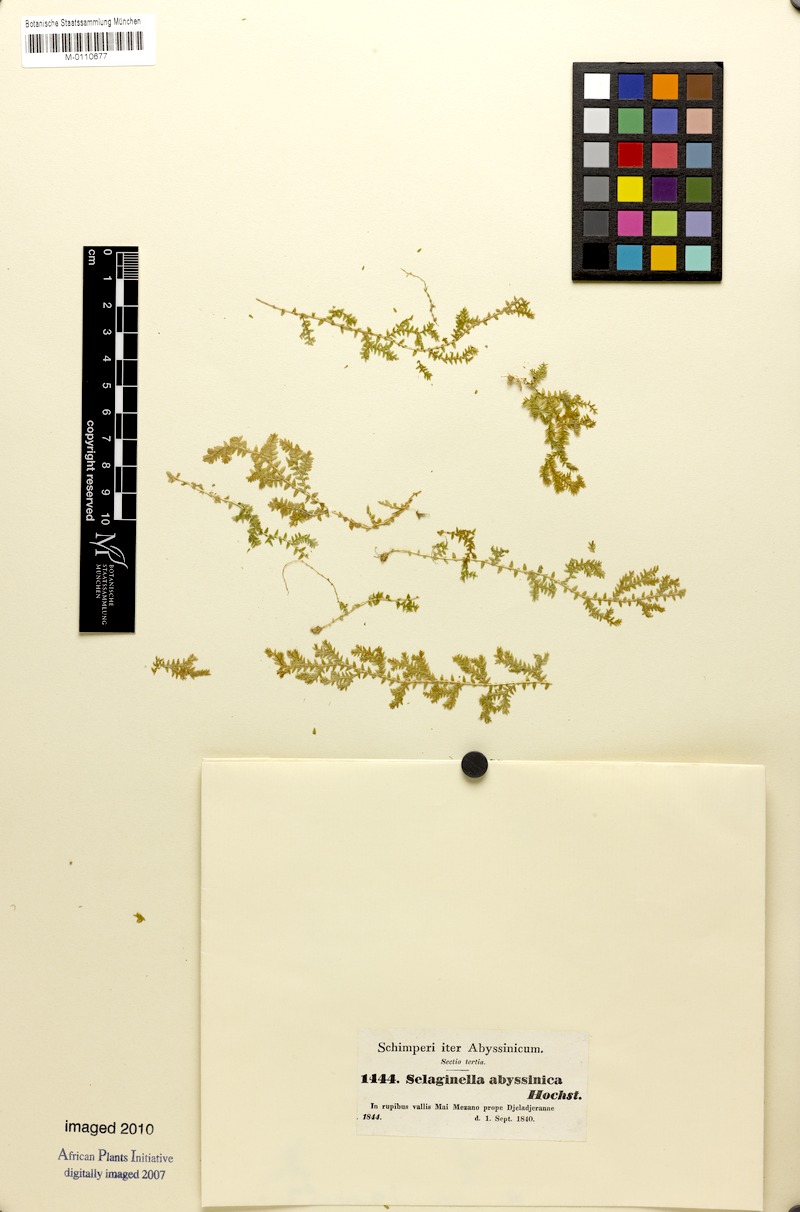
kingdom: Plantae
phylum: Tracheophyta
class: Lycopodiopsida
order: Selaginellales
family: Selaginellaceae
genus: Selaginella
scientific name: Selaginella goudotiana
